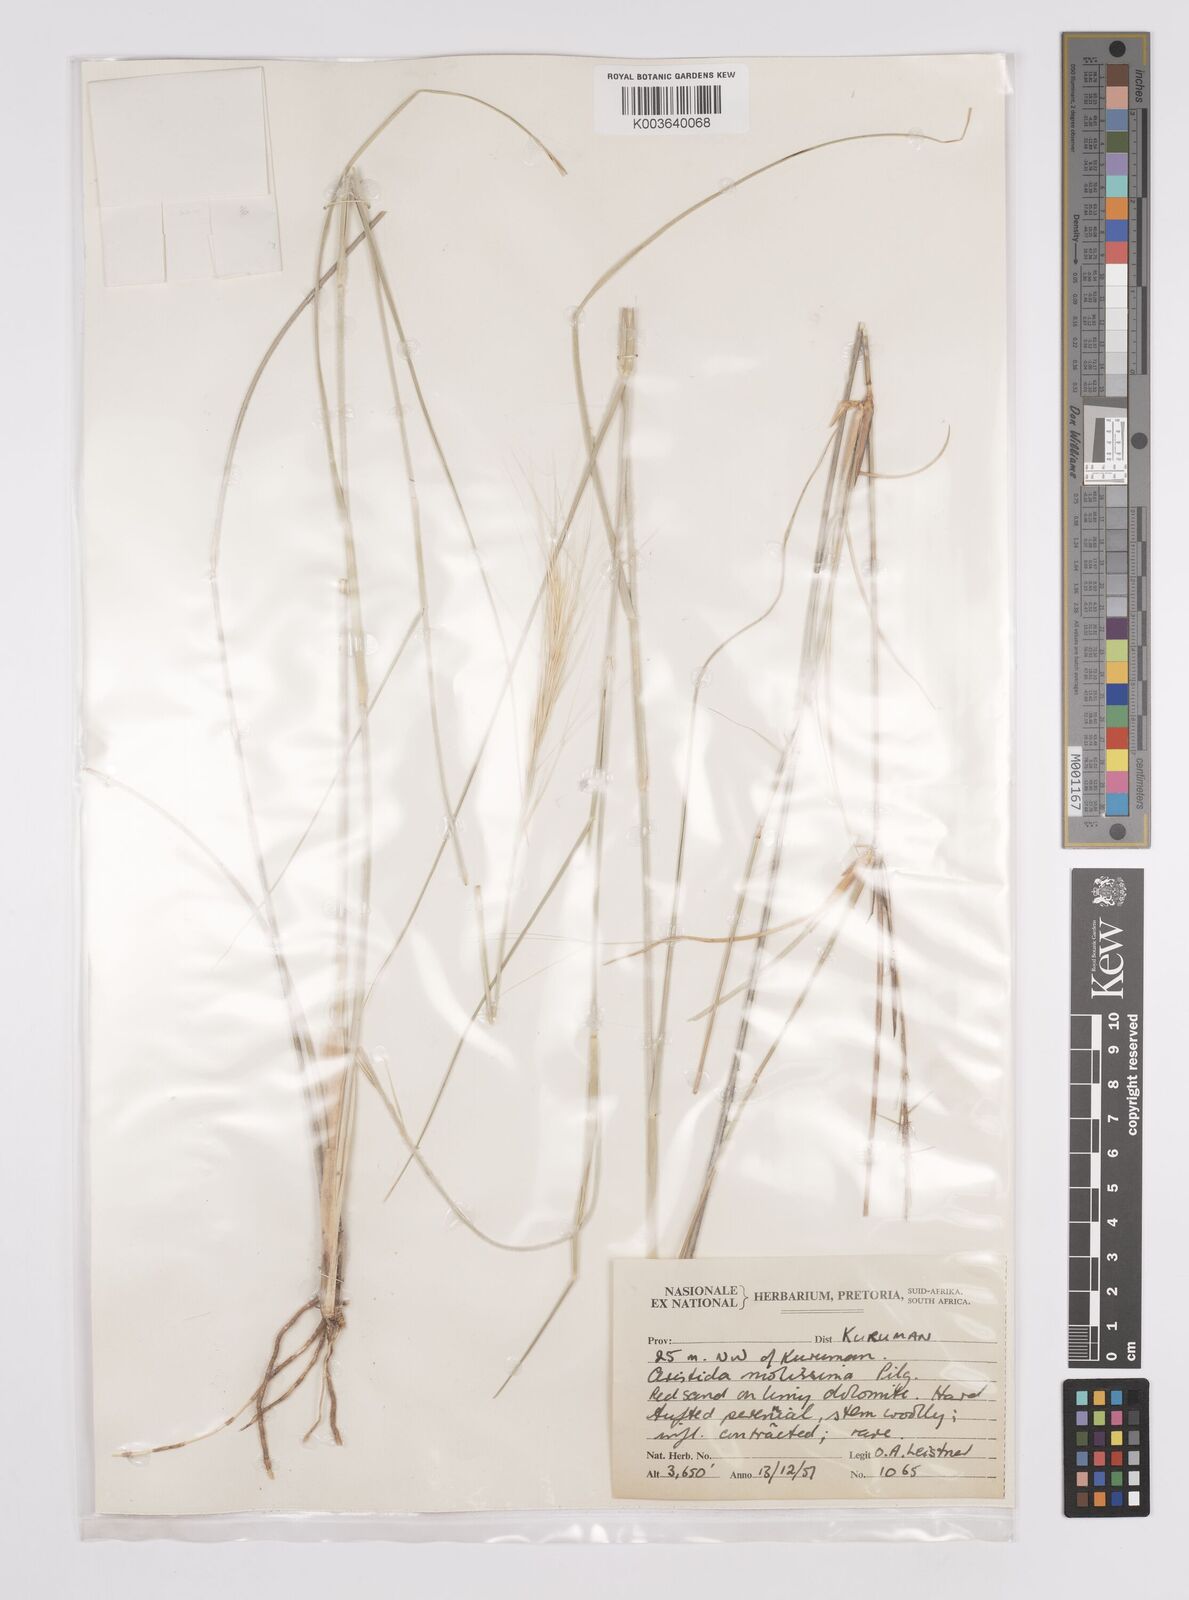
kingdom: Plantae
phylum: Tracheophyta
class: Liliopsida
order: Poales
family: Poaceae
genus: Aristida
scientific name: Aristida mollissima
